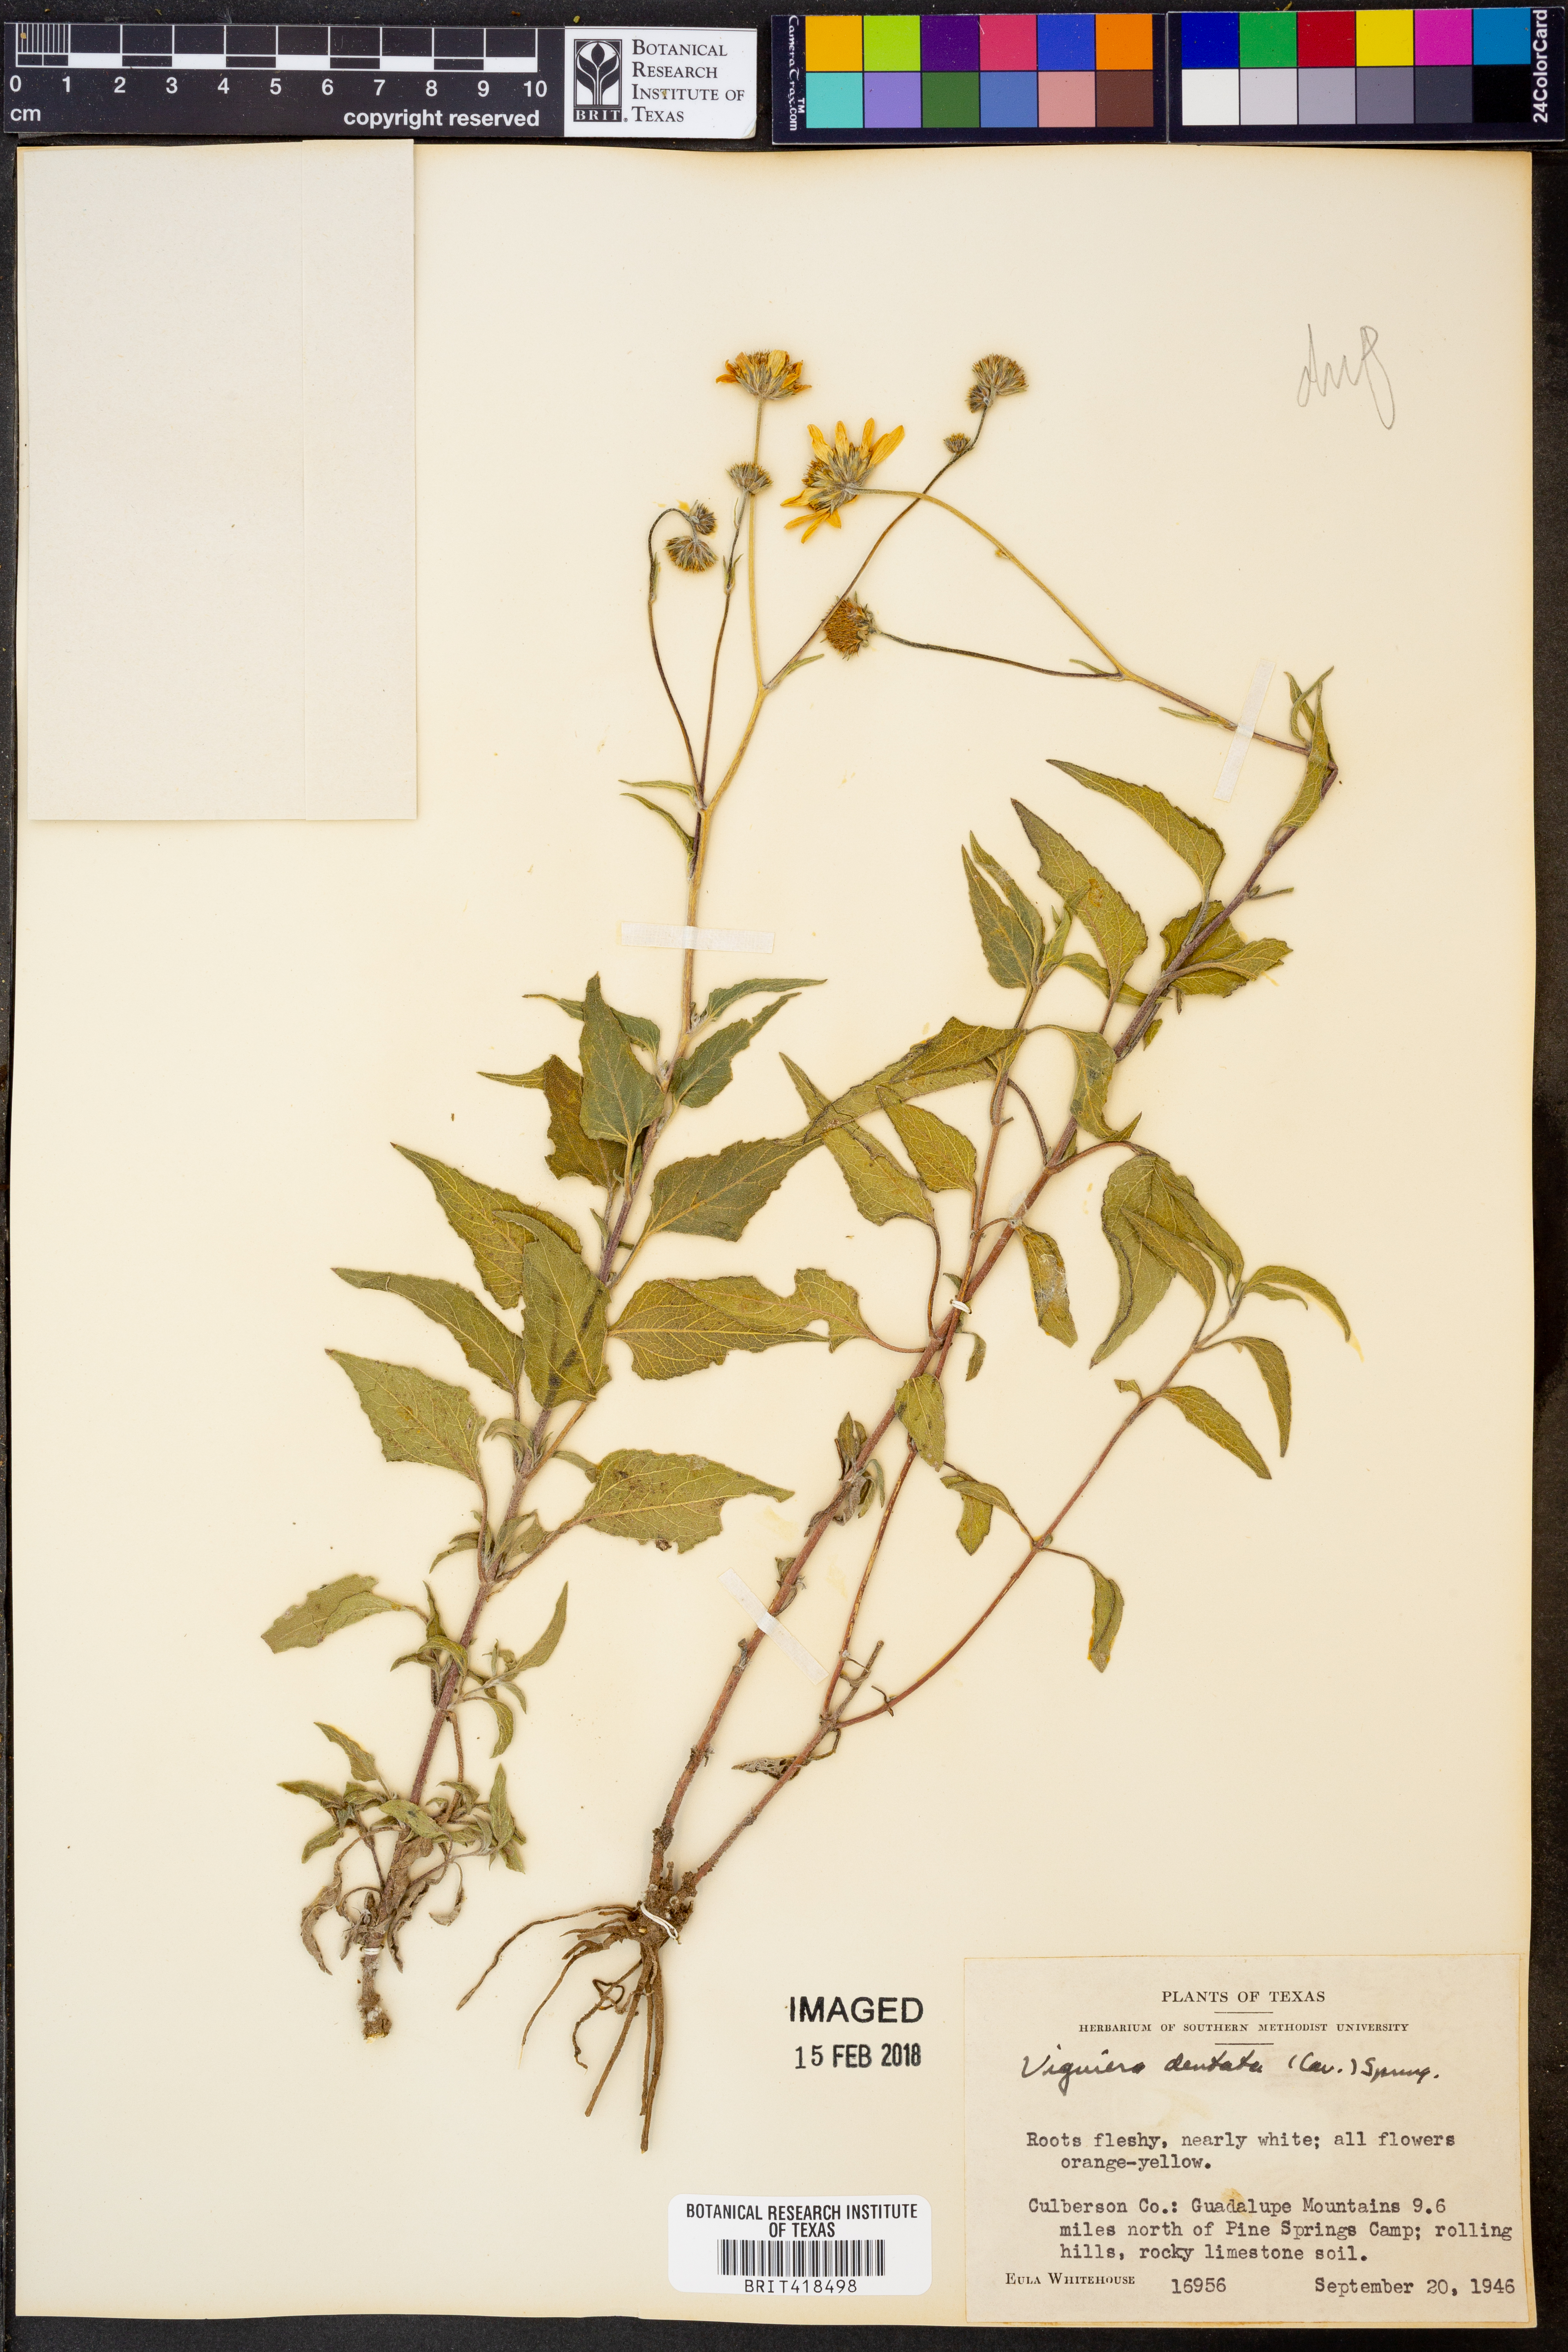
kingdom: Plantae
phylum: Tracheophyta
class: Magnoliopsida
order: Asterales
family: Asteraceae
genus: Viguiera
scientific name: Viguiera dentata
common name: Toothleaf
